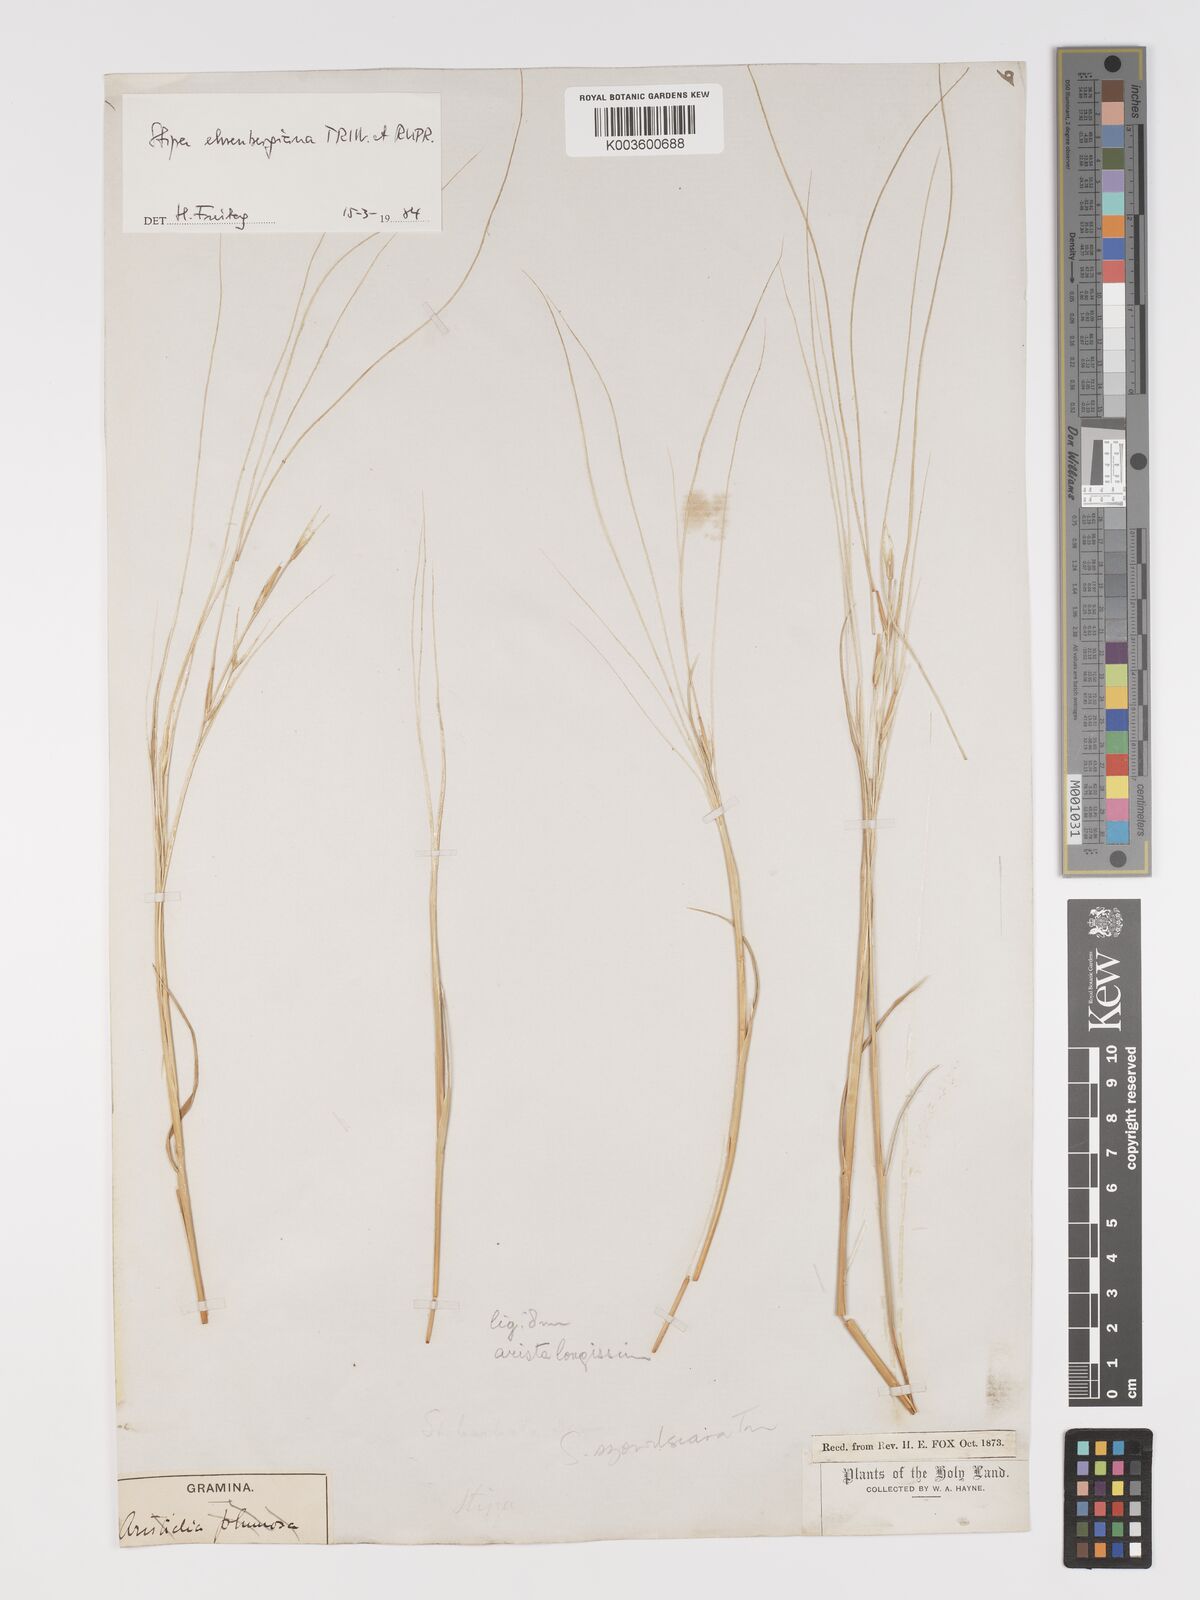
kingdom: Plantae
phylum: Tracheophyta
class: Liliopsida
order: Poales
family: Poaceae
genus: Stipa
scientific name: Stipa ehrenbergiana
